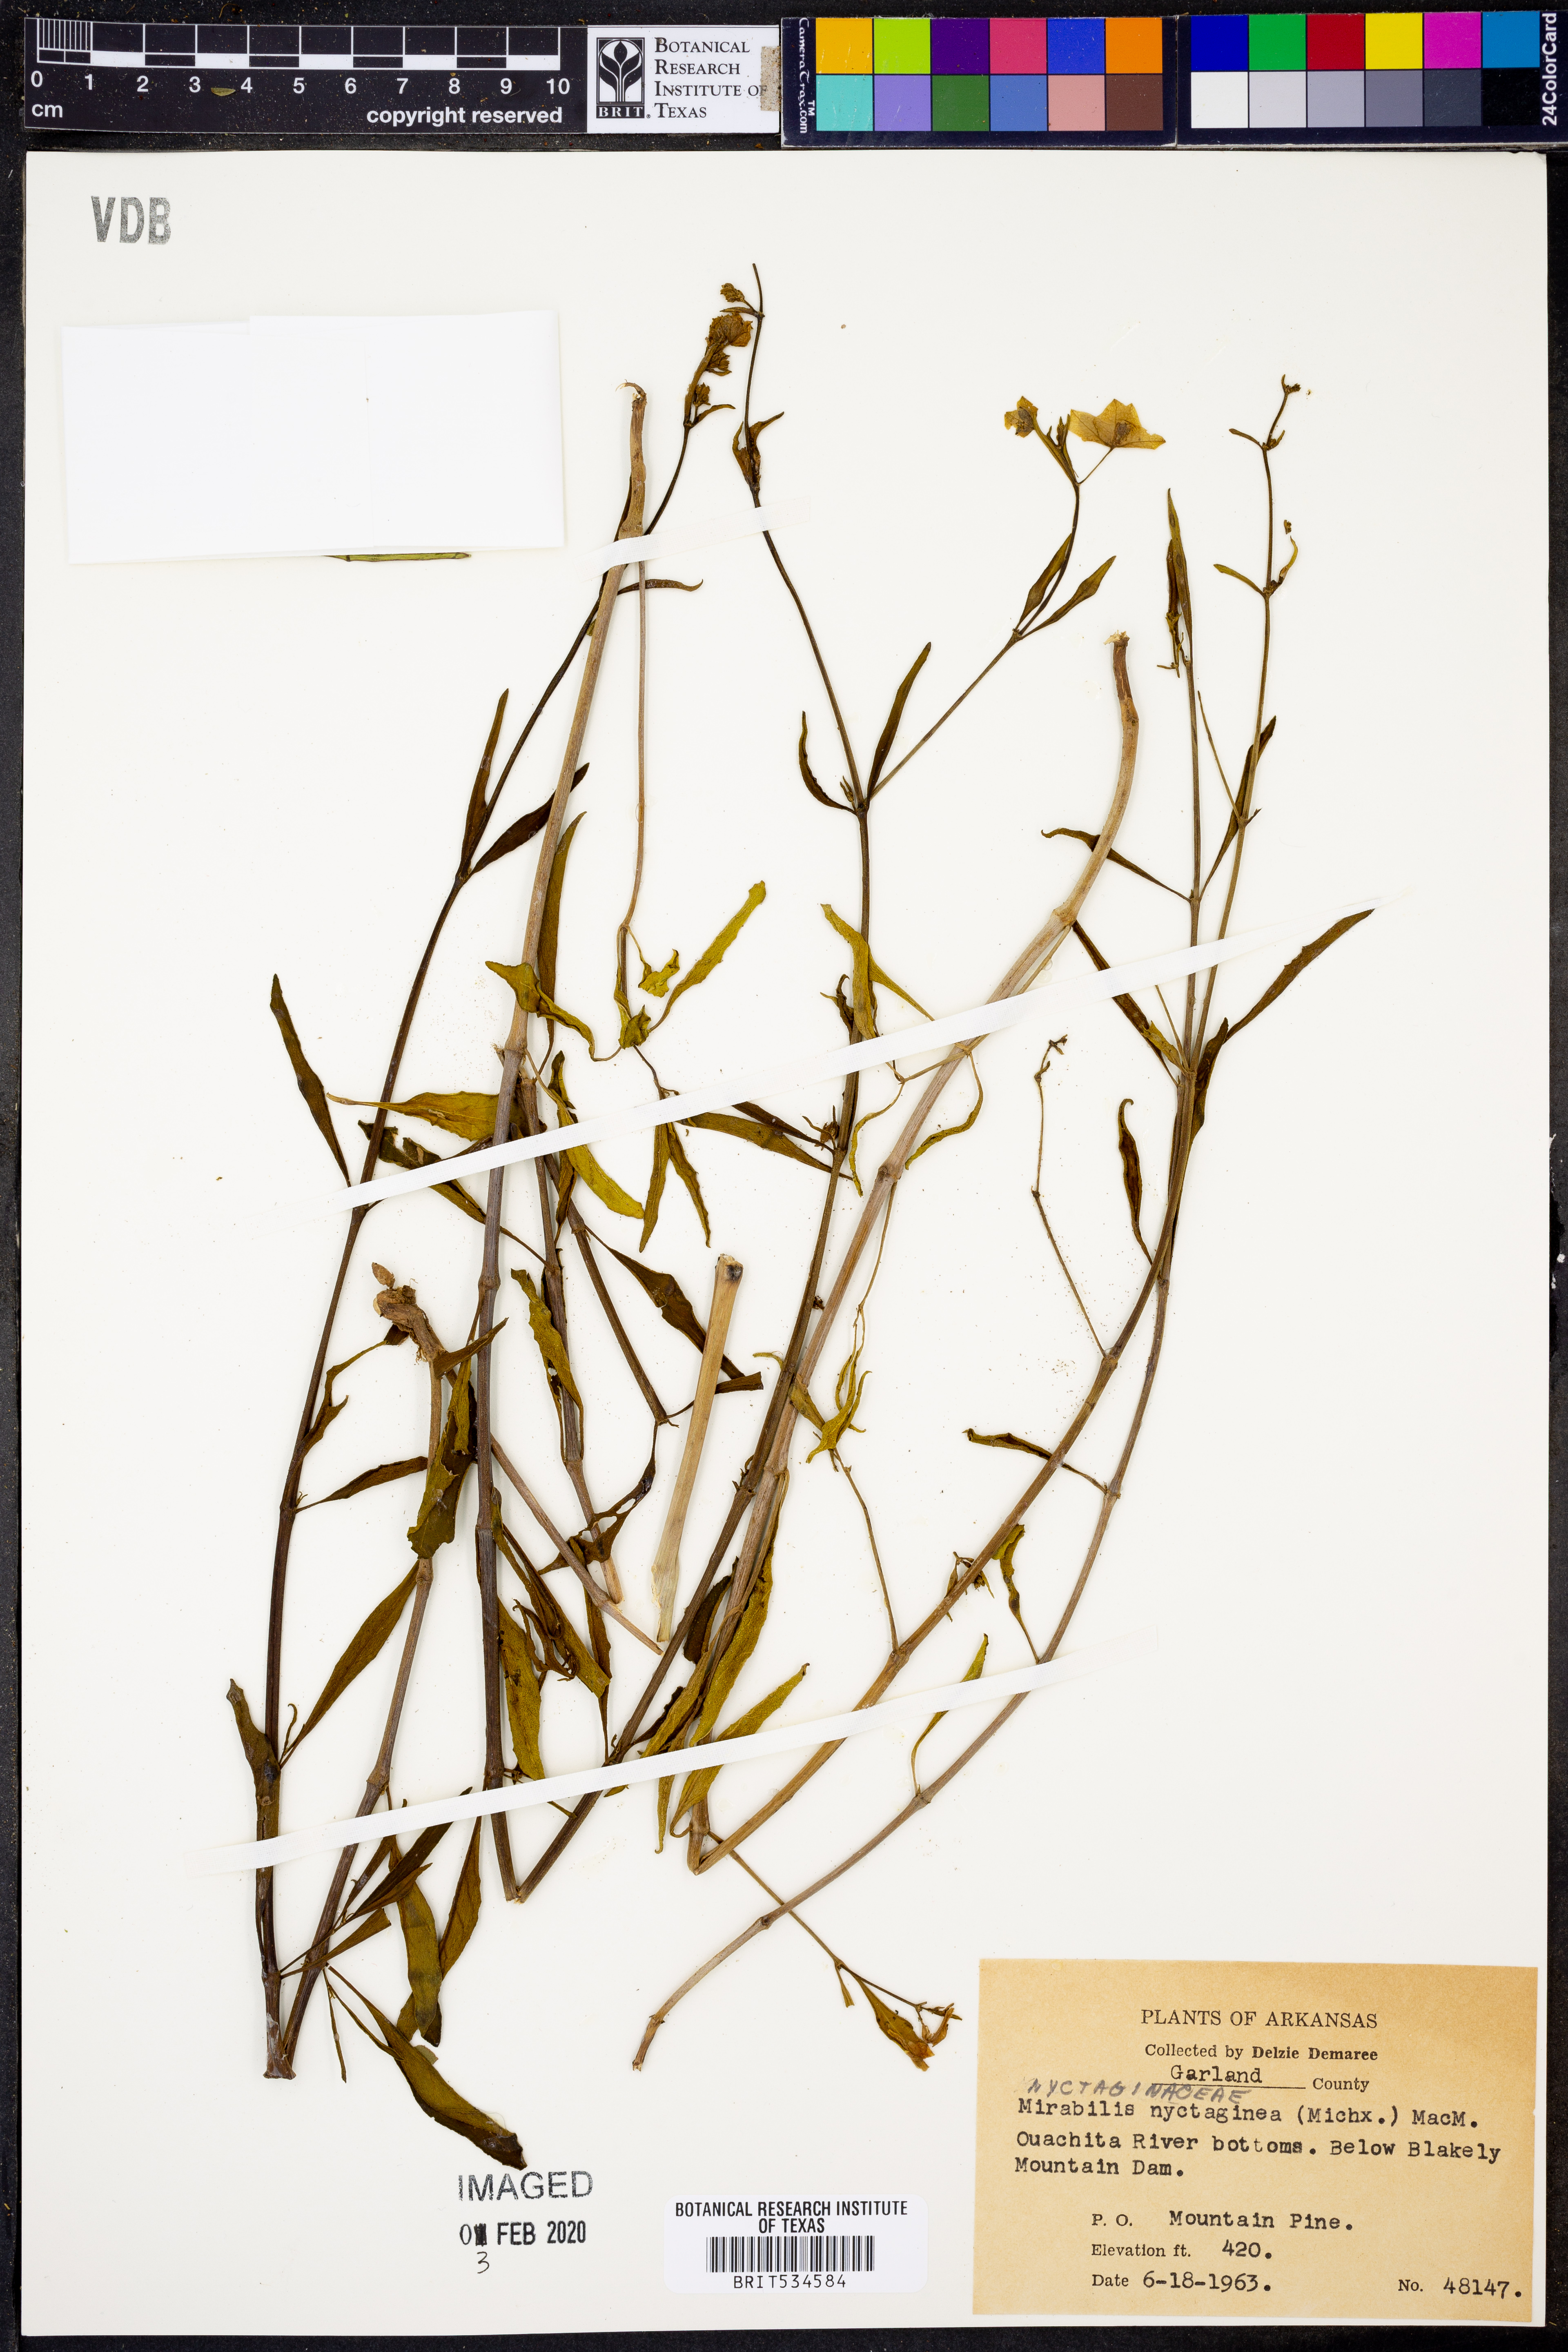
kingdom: Plantae
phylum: Tracheophyta
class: Magnoliopsida
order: Caryophyllales
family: Nyctaginaceae
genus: Mirabilis
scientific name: Mirabilis nyctaginea
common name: Umbrella wort
